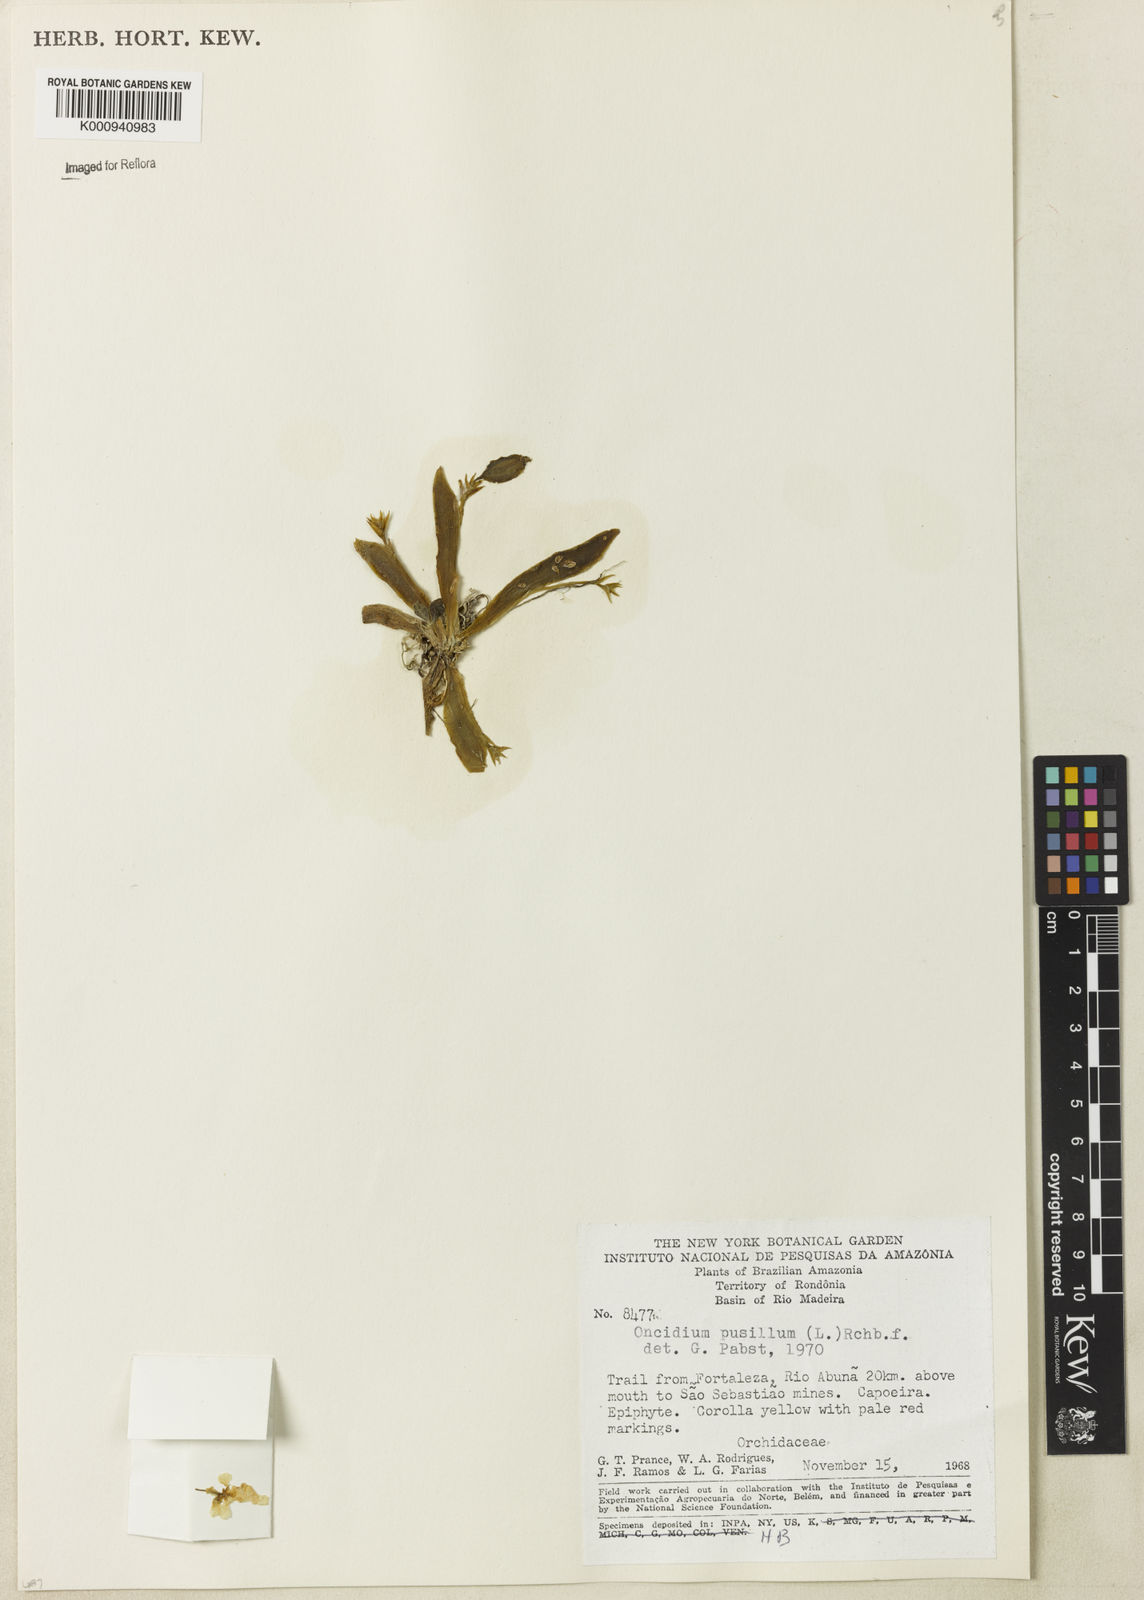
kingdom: Plantae
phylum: Tracheophyta
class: Liliopsida
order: Asparagales
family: Orchidaceae
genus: Erycina
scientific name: Erycina pusilla
